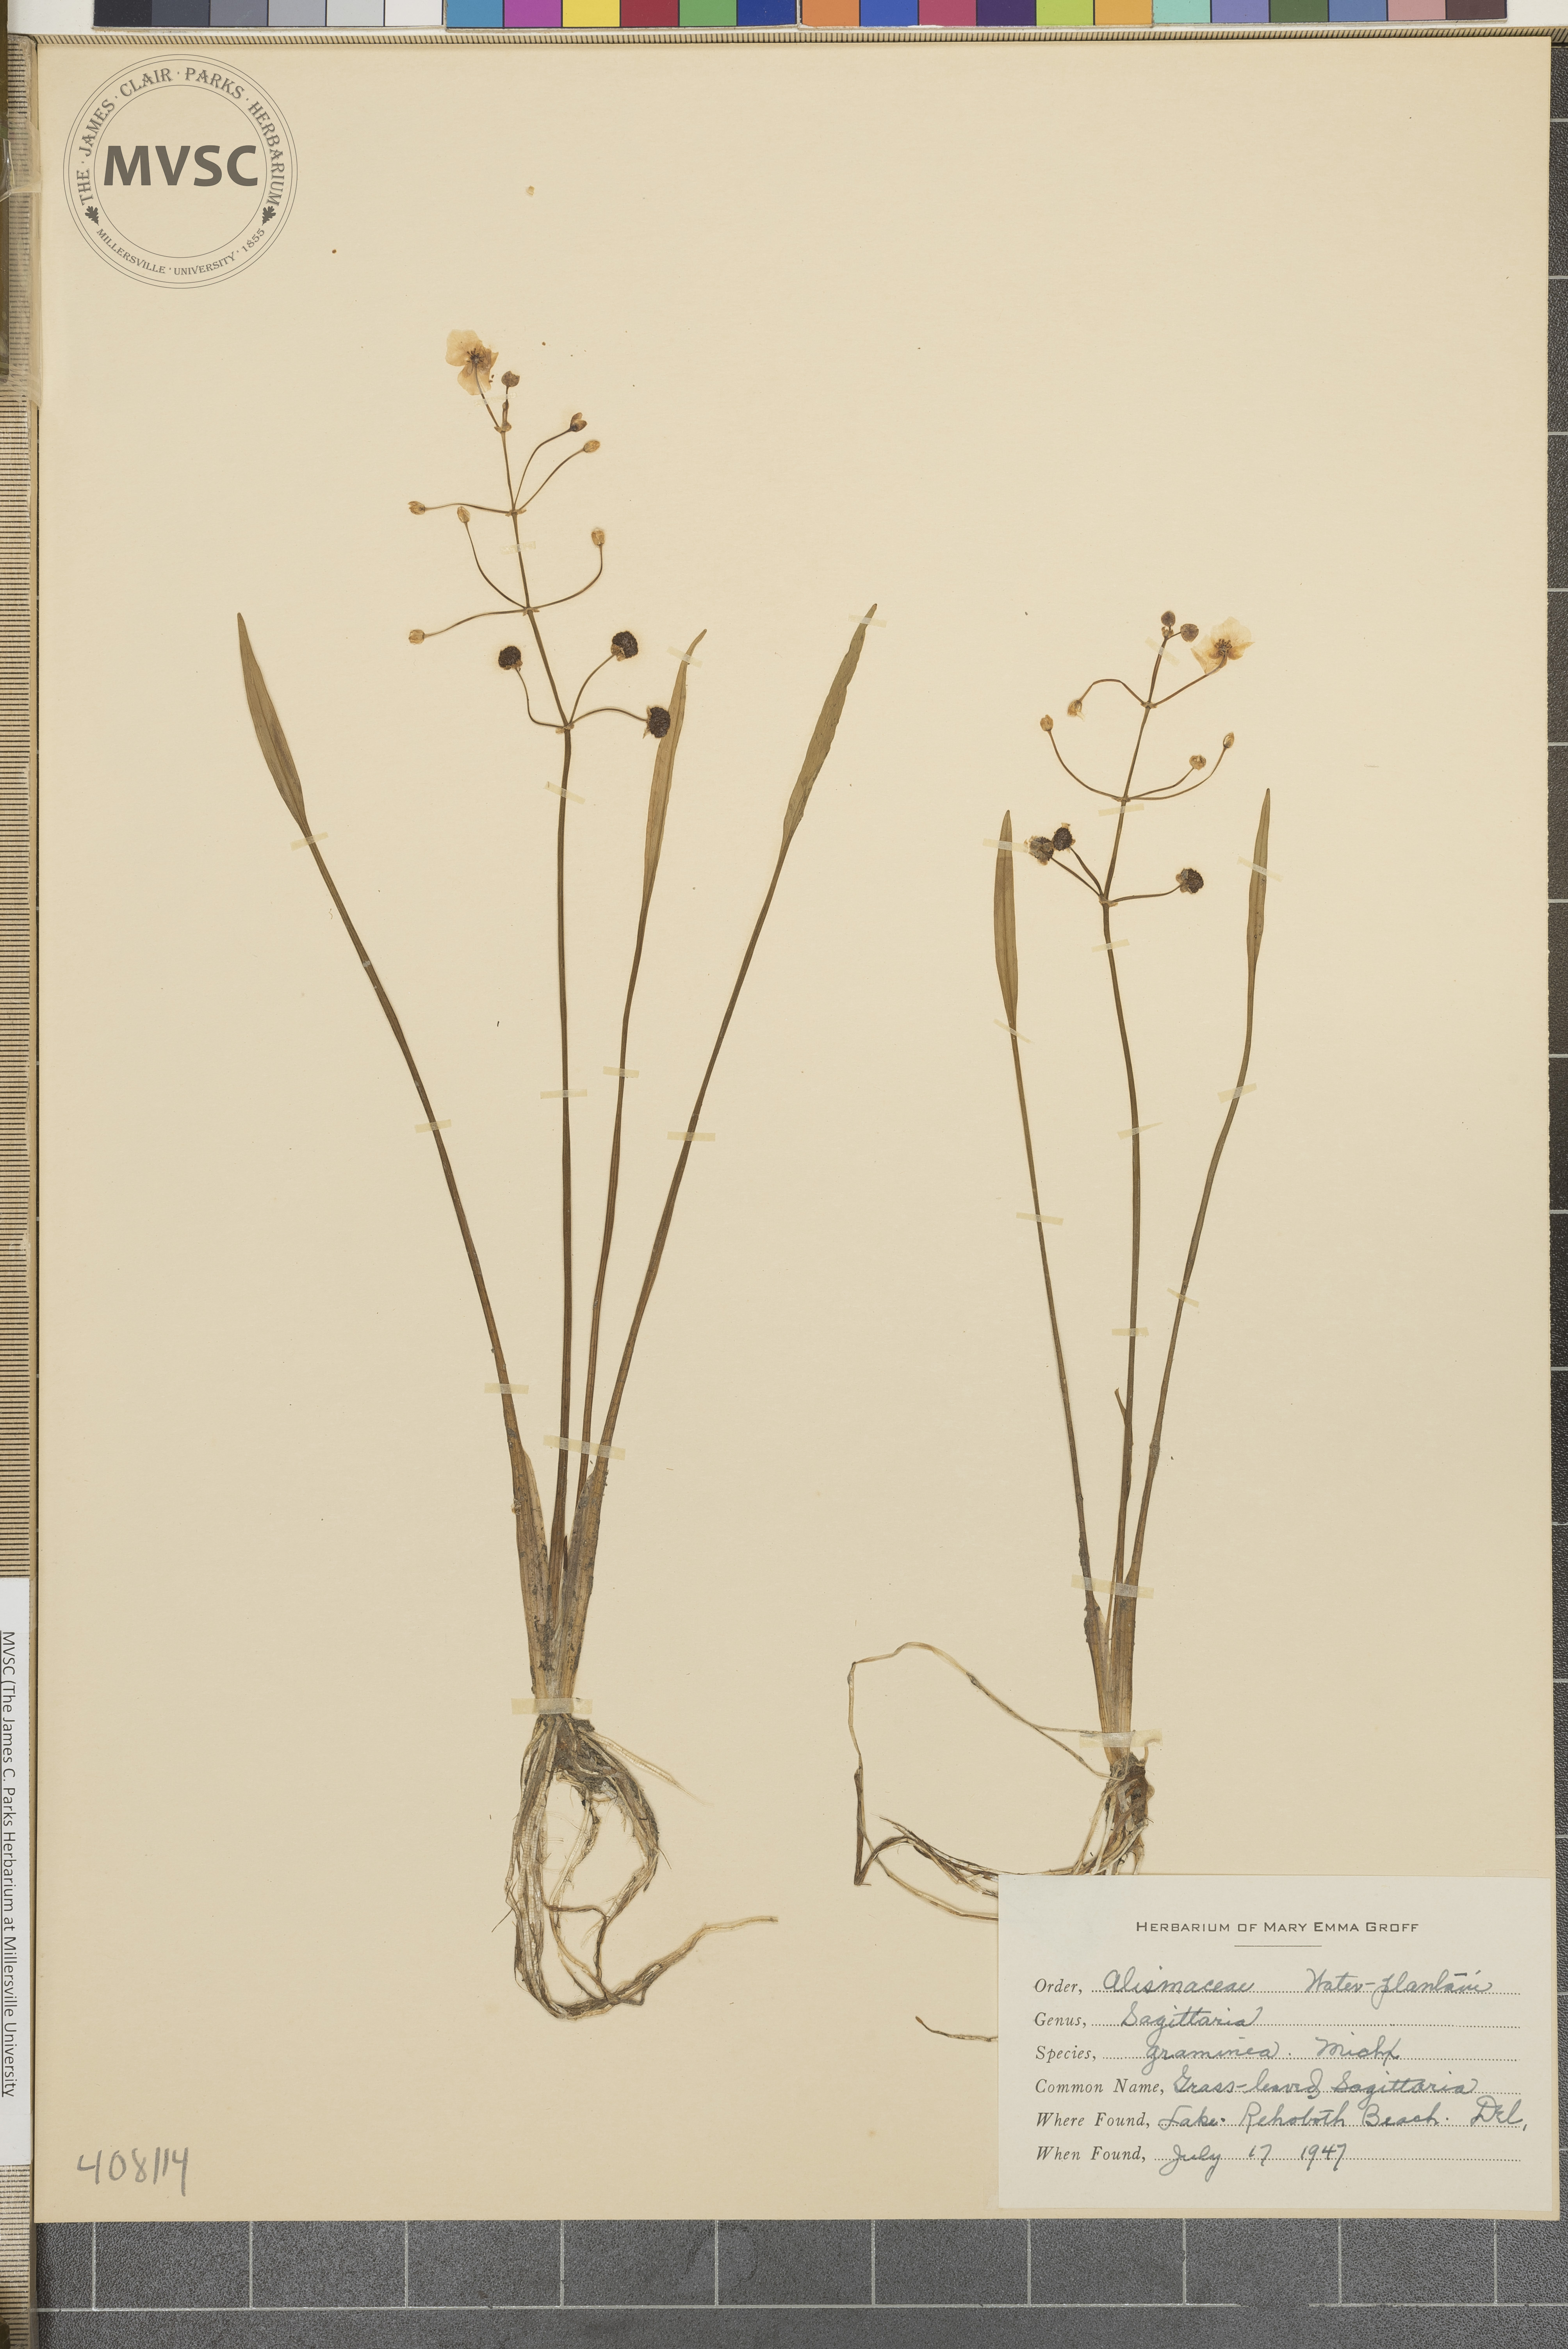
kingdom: Plantae
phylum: Tracheophyta
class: Liliopsida
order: Alismatales
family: Alismataceae
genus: Sagittaria
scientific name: Sagittaria graminea
